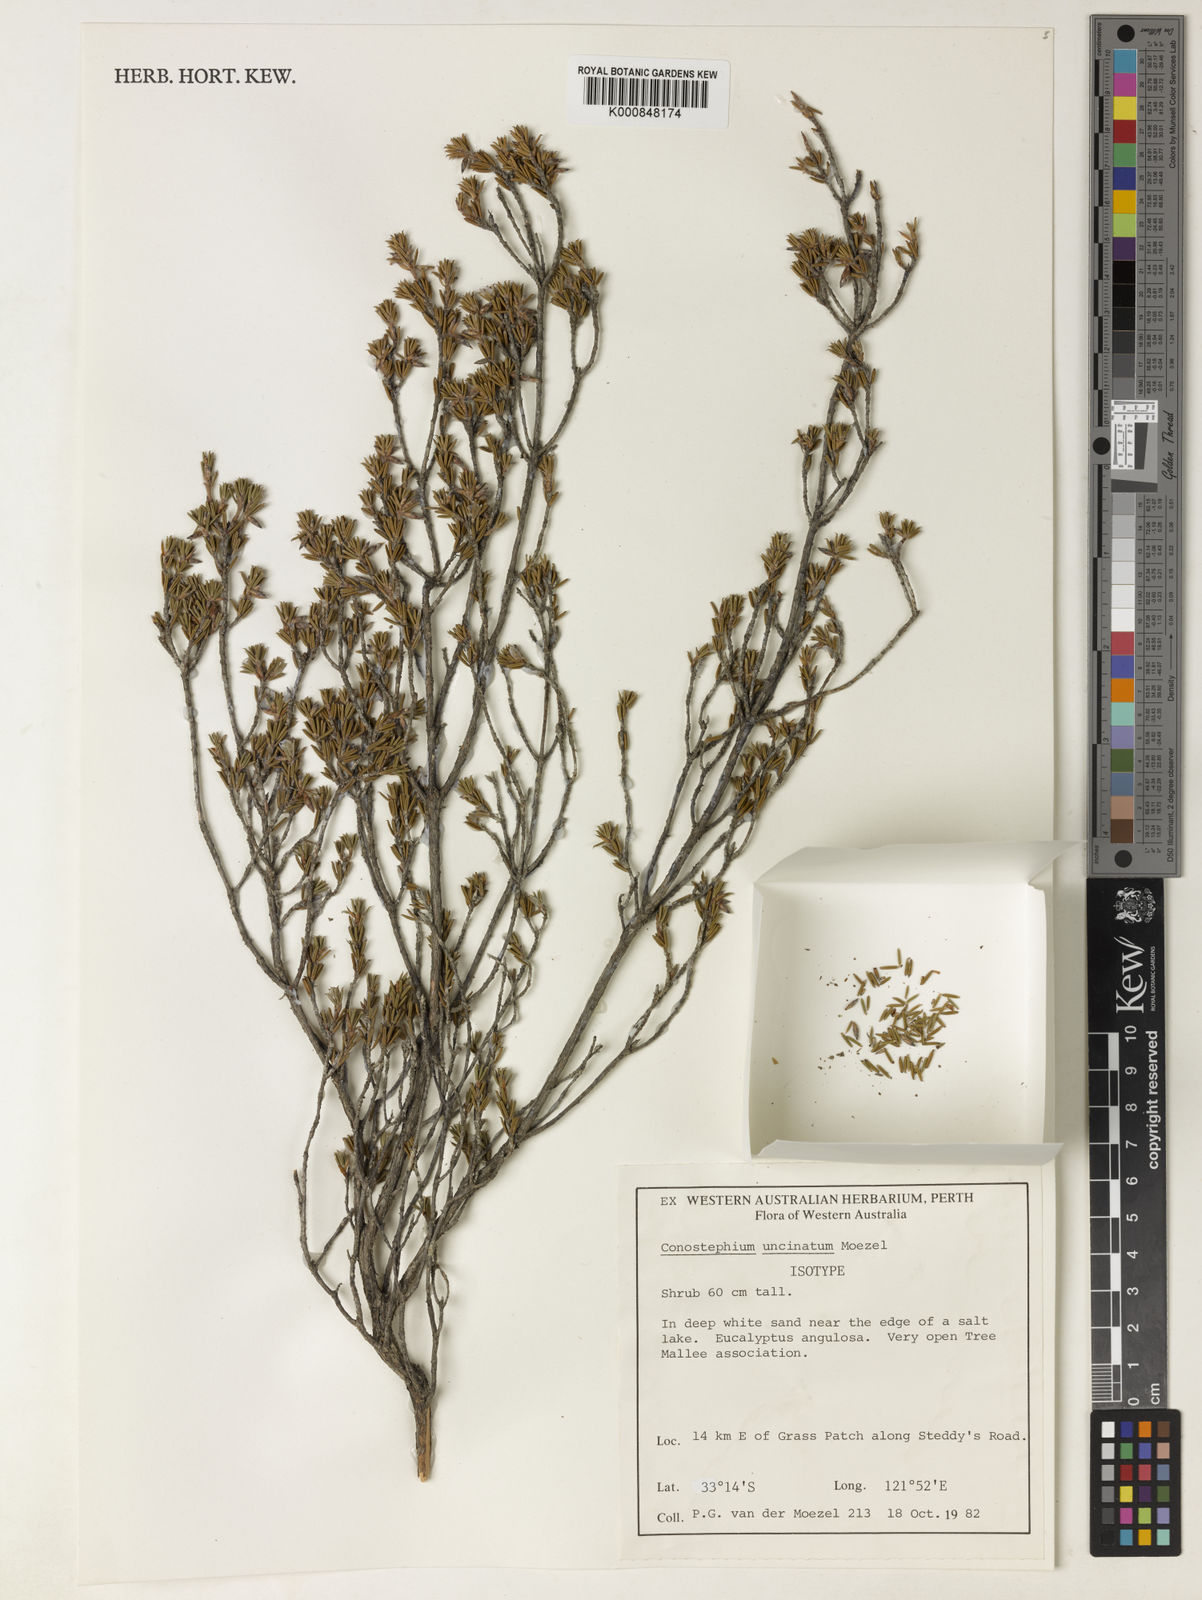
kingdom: Plantae
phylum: Tracheophyta
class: Magnoliopsida
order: Ericales
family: Ericaceae
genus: Conostephium
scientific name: Conostephium uncinatum
